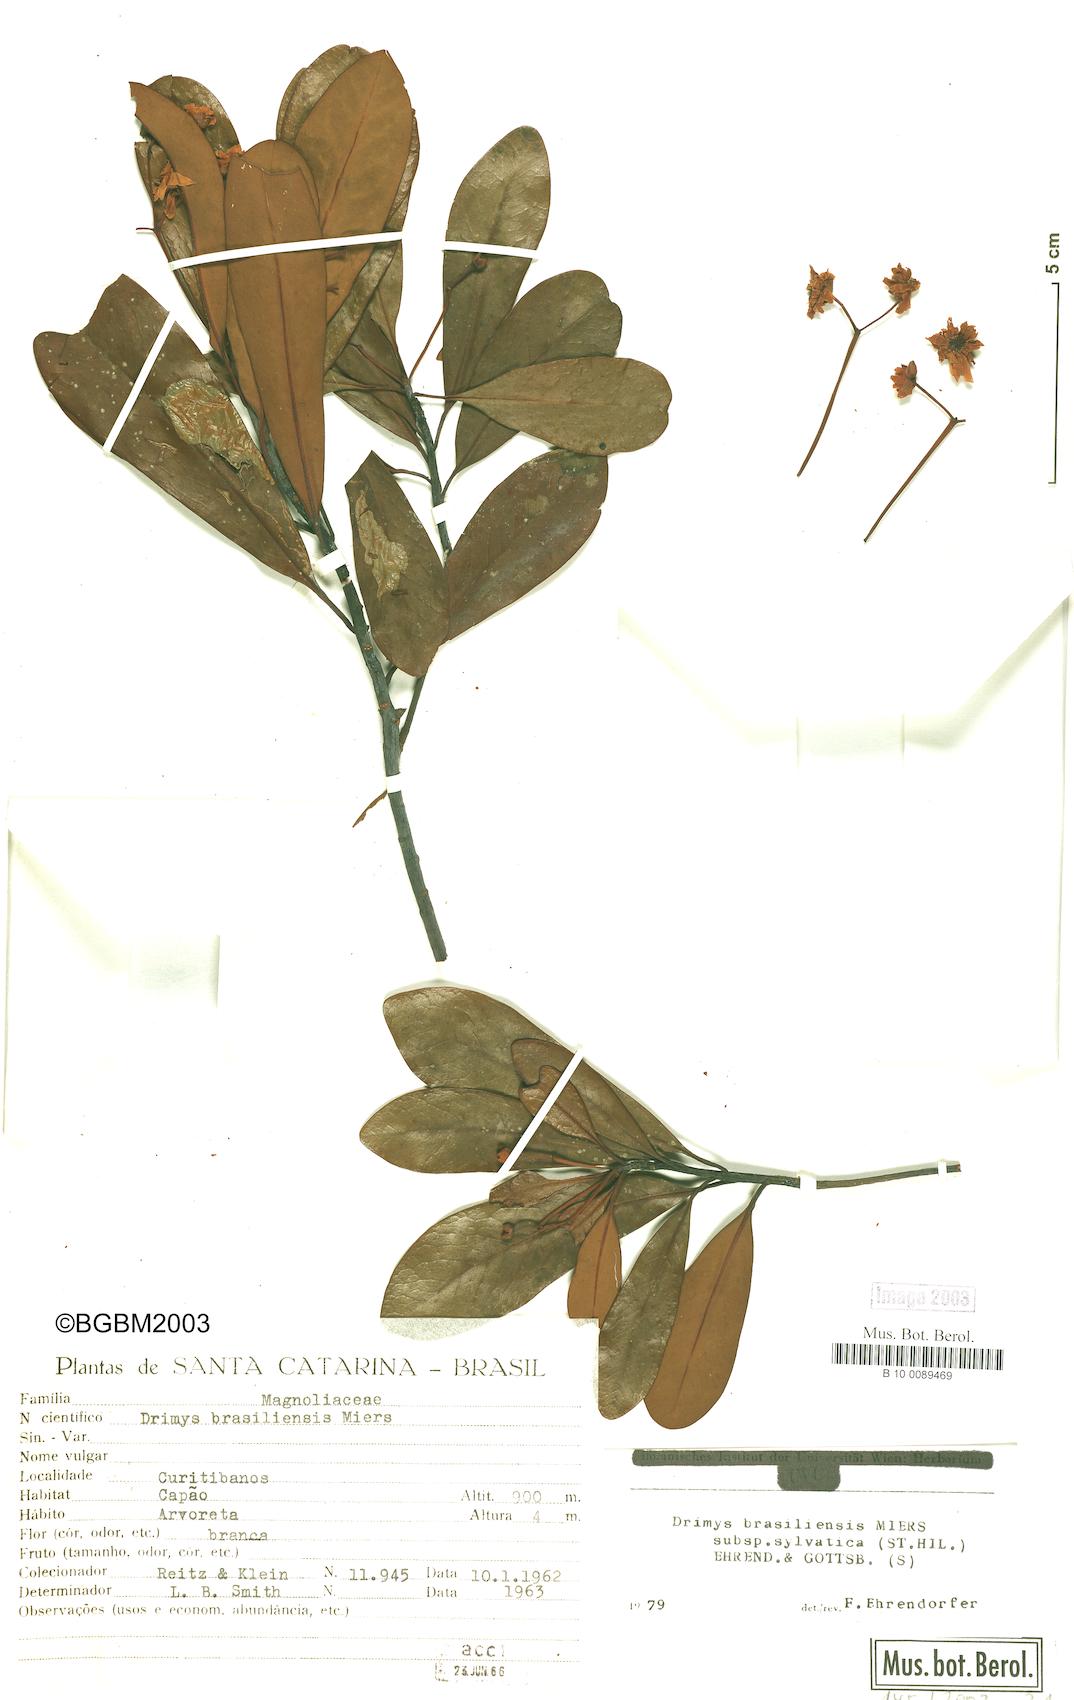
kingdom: Plantae
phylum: Tracheophyta
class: Magnoliopsida
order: Canellales
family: Winteraceae
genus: Drimys
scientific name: Drimys brasiliensis
